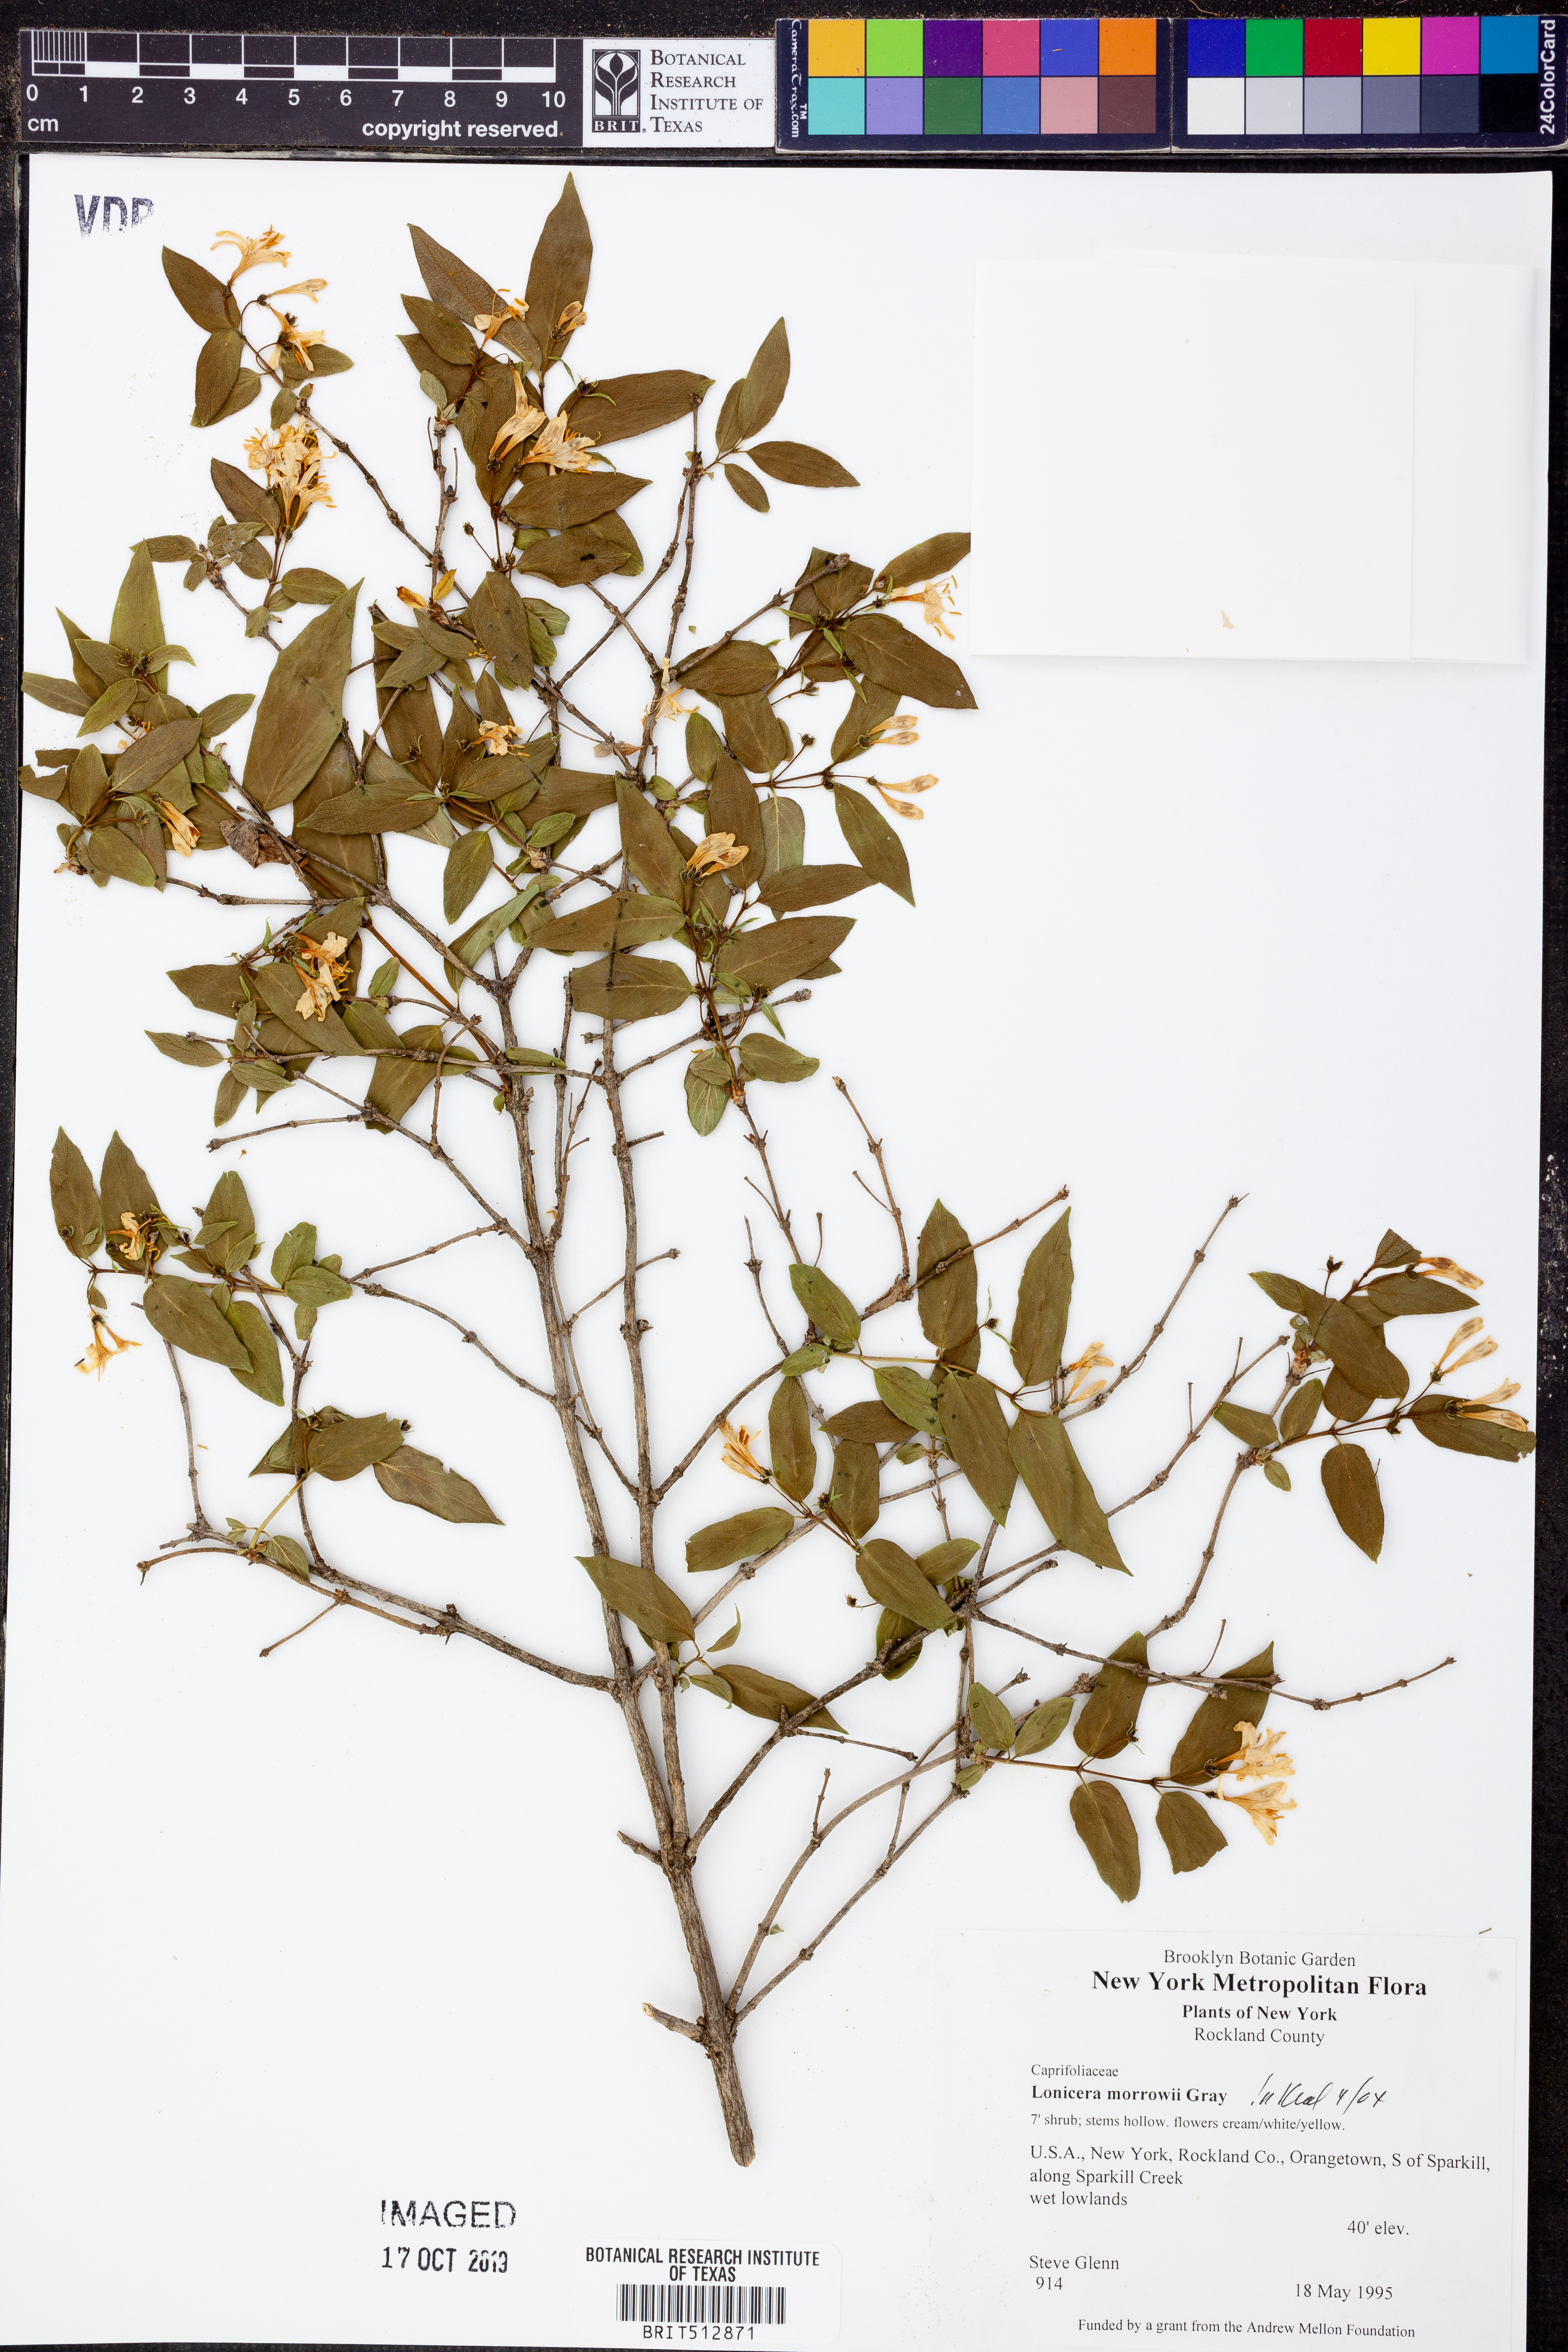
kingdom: Plantae
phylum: Tracheophyta
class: Magnoliopsida
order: Dipsacales
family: Caprifoliaceae
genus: Lonicera
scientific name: Lonicera morrowii
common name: Morrow's honeysuckle
